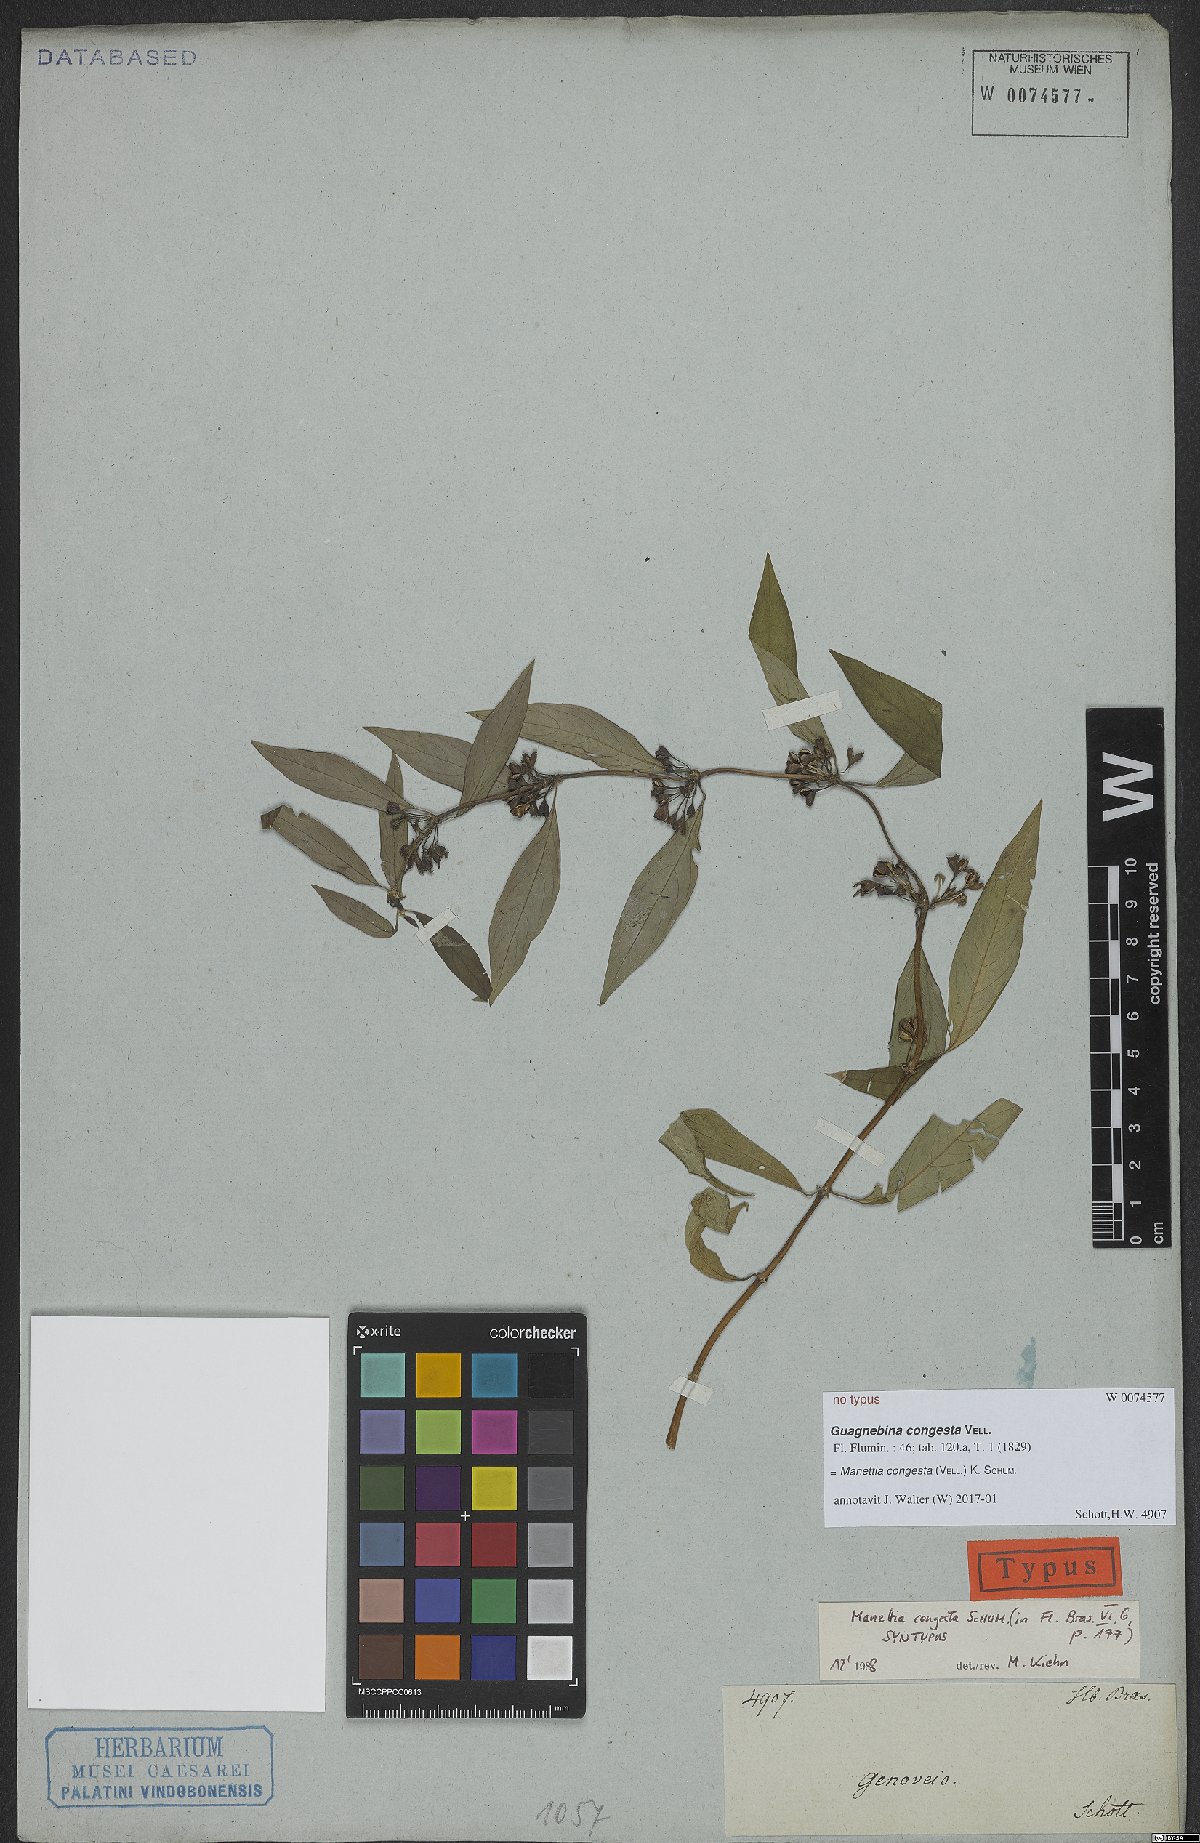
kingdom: Plantae
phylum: Tracheophyta
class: Magnoliopsida
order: Gentianales
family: Rubiaceae
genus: Manettia
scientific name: Manettia congesta
